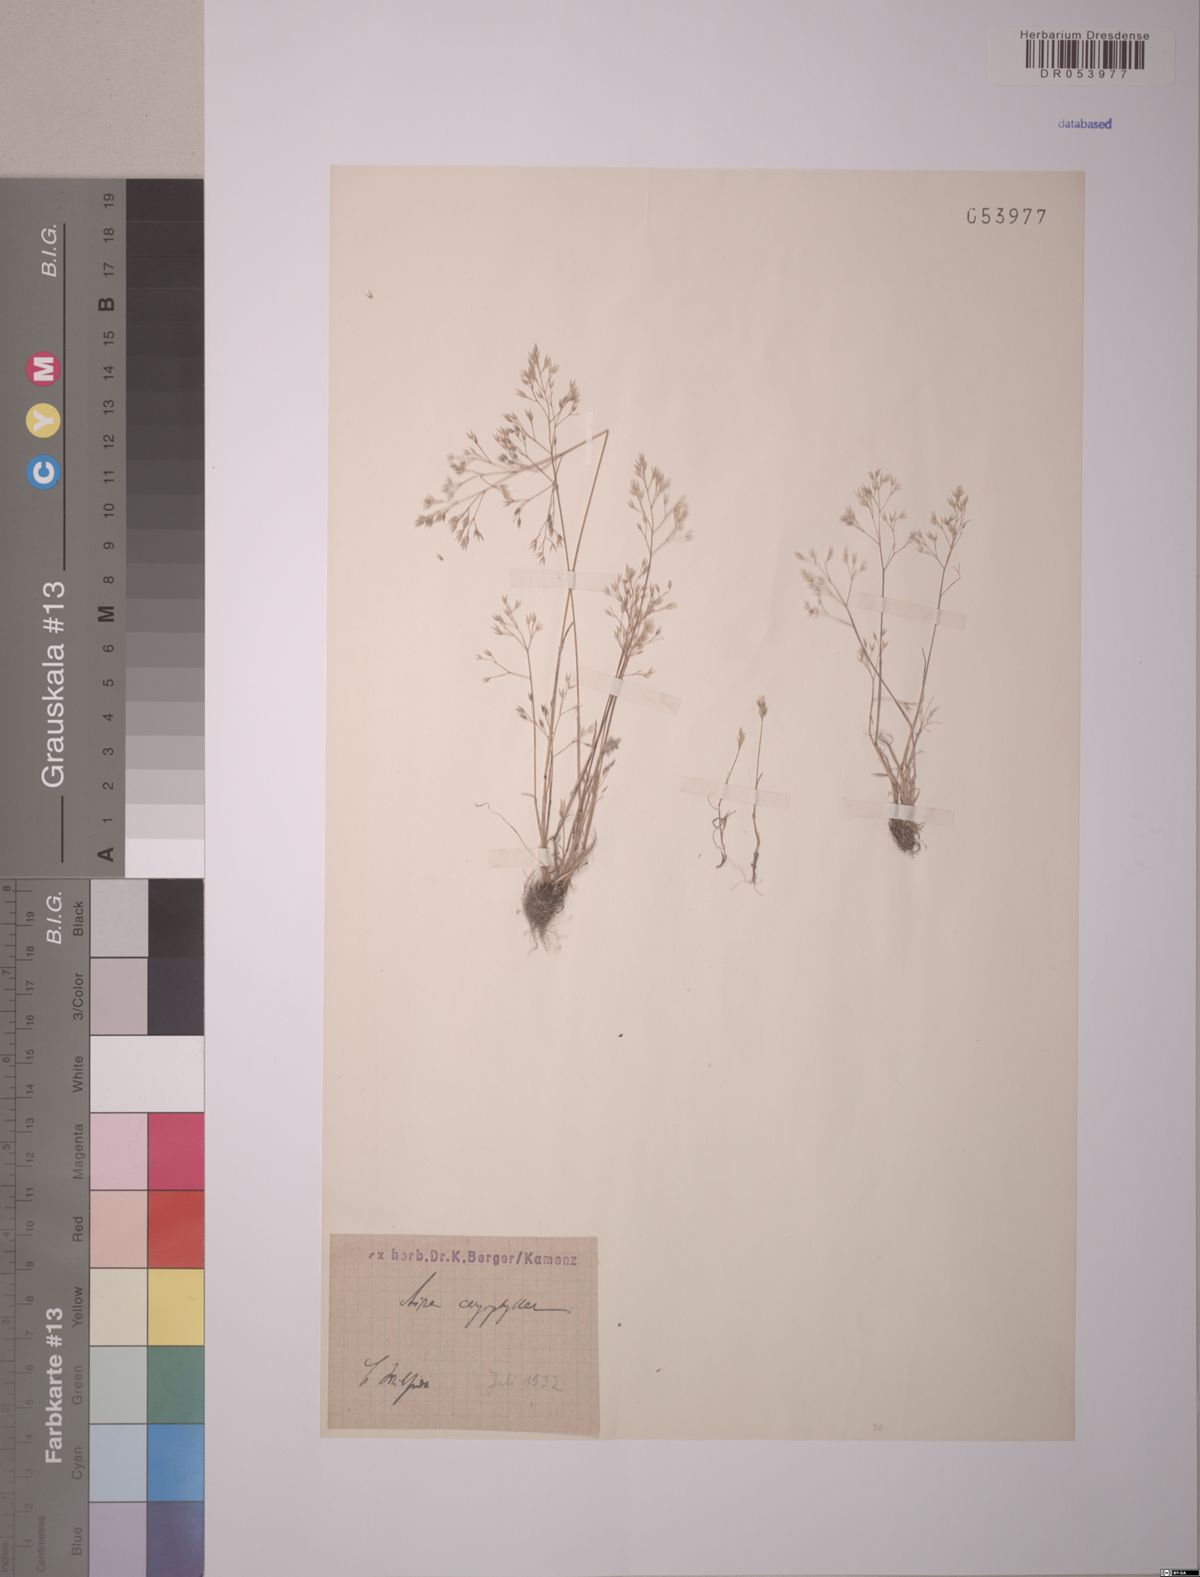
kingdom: Plantae
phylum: Tracheophyta
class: Liliopsida
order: Poales
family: Poaceae
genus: Aira
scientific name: Aira caryophyllea
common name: Silver hairgrass
